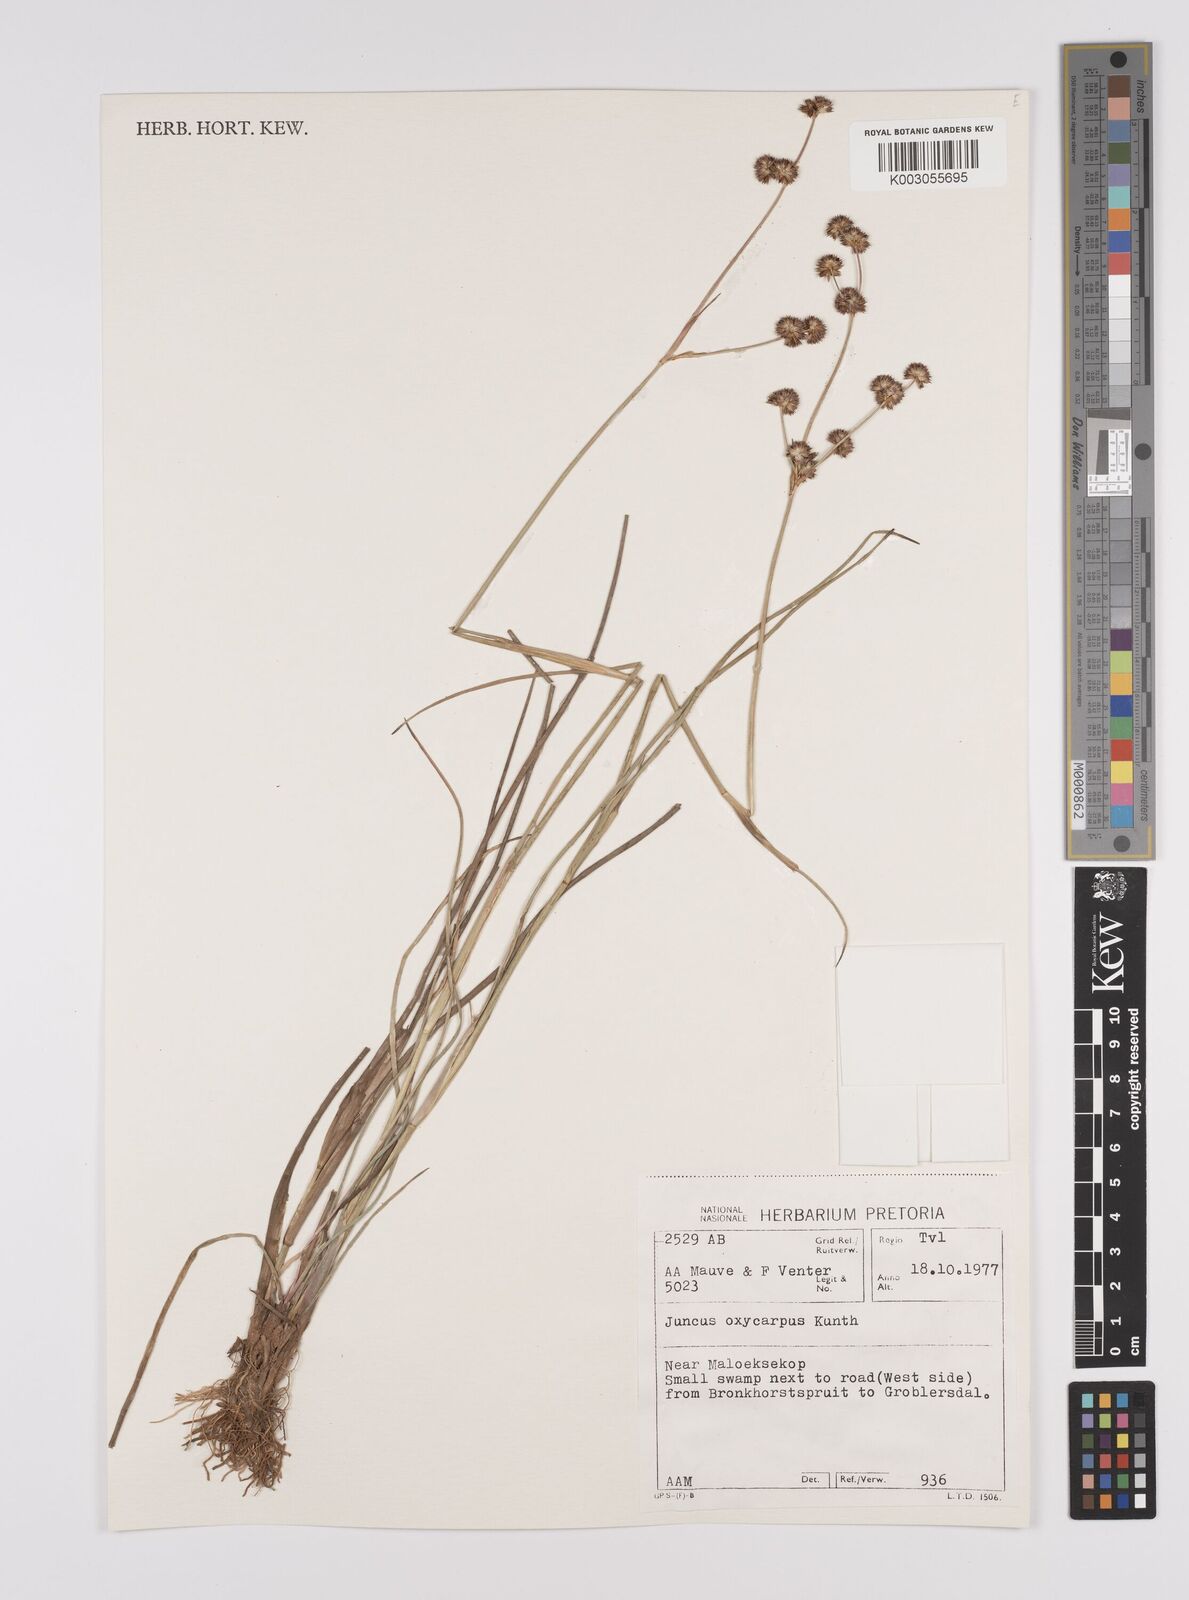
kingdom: Plantae
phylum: Tracheophyta
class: Liliopsida
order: Poales
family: Juncaceae
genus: Juncus
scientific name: Juncus oxycarpus
